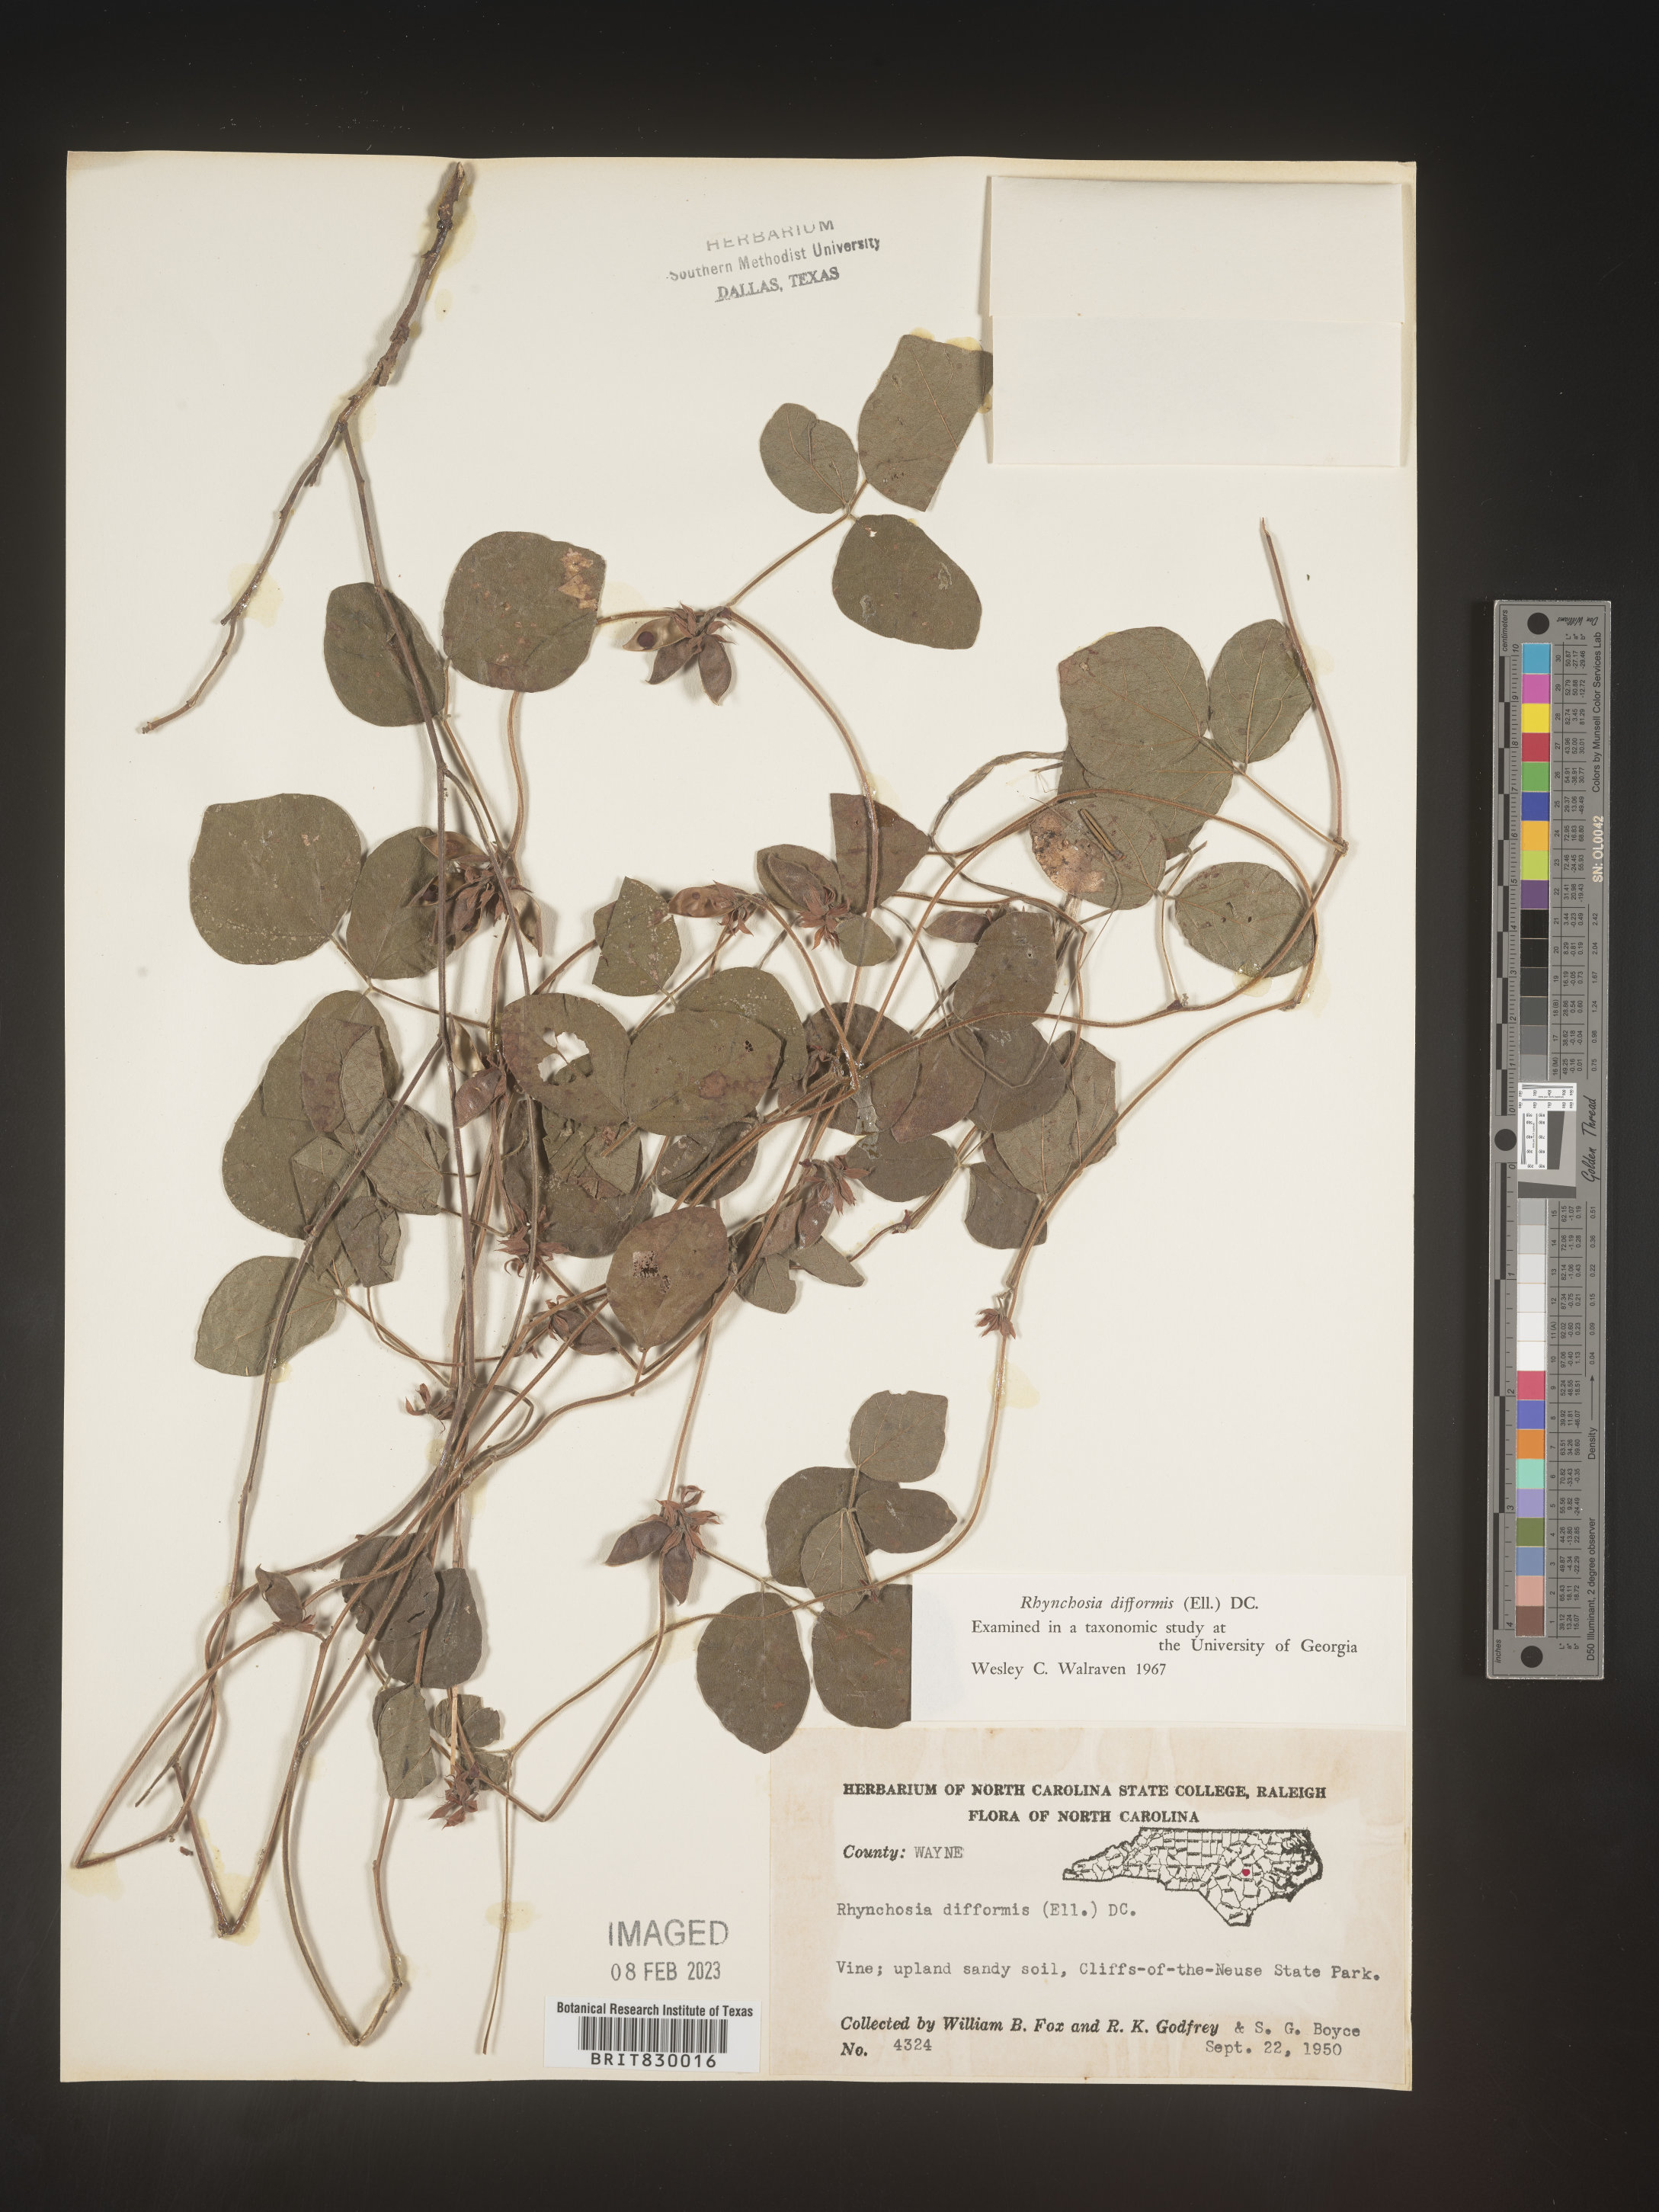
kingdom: Plantae
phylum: Tracheophyta
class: Magnoliopsida
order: Fabales
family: Fabaceae
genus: Rhynchosia
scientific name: Rhynchosia difformis
